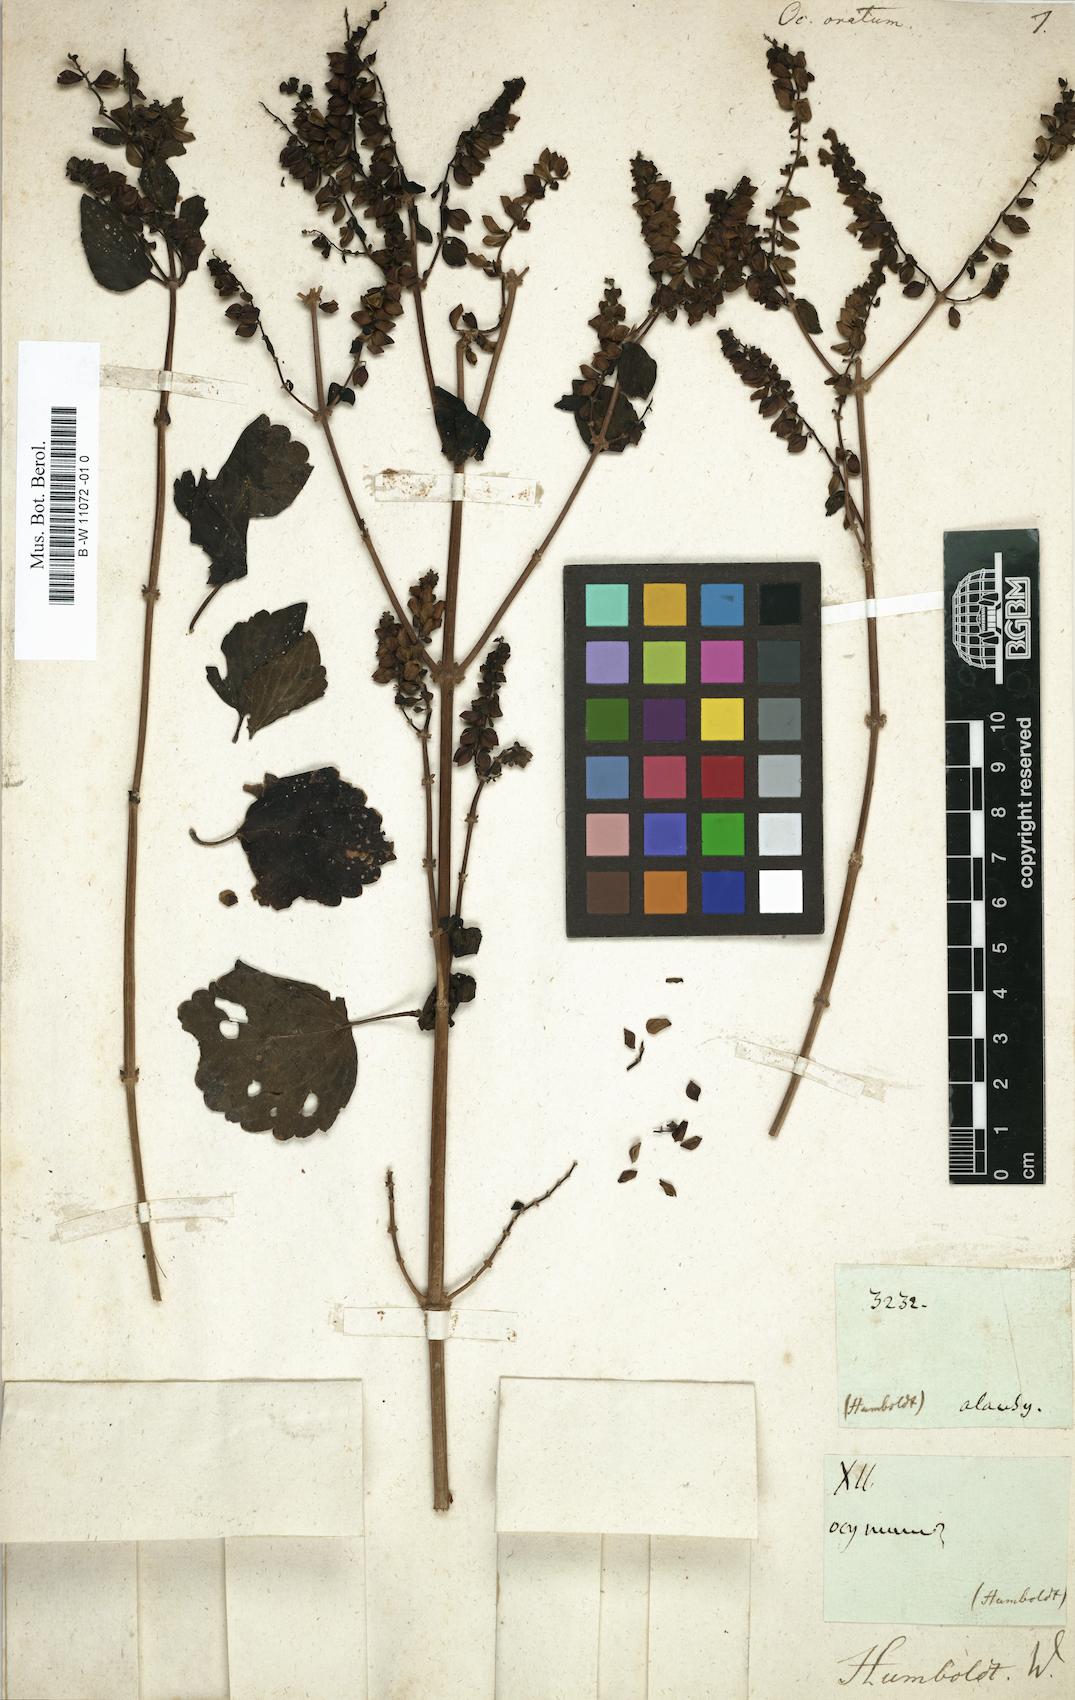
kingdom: Plantae
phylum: Tracheophyta
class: Magnoliopsida
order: Lamiales
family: Lamiaceae
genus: Ocimum
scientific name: Ocimum ovatum
